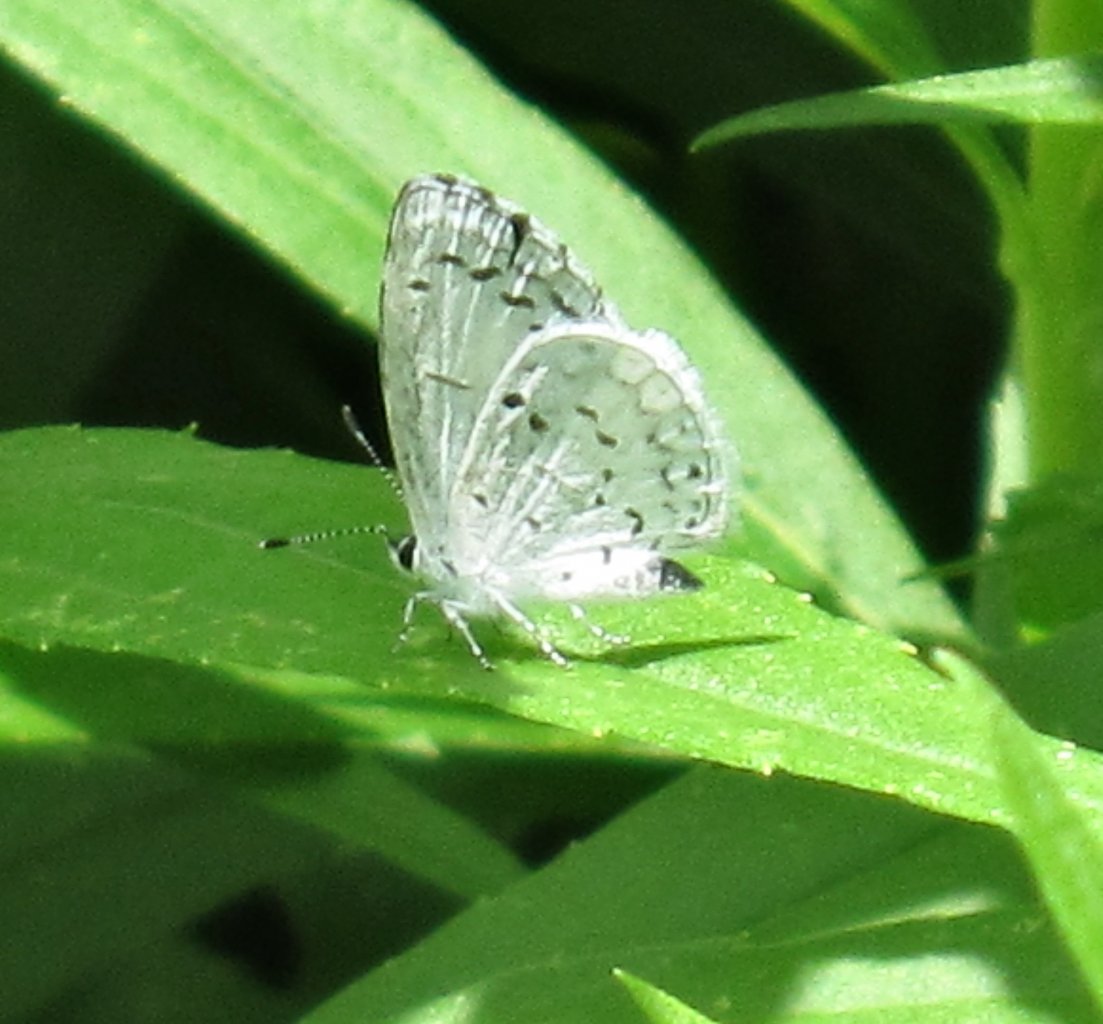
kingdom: Animalia
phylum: Arthropoda
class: Insecta
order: Lepidoptera
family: Lycaenidae
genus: Cyaniris
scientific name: Cyaniris neglecta
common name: Summer Azure
